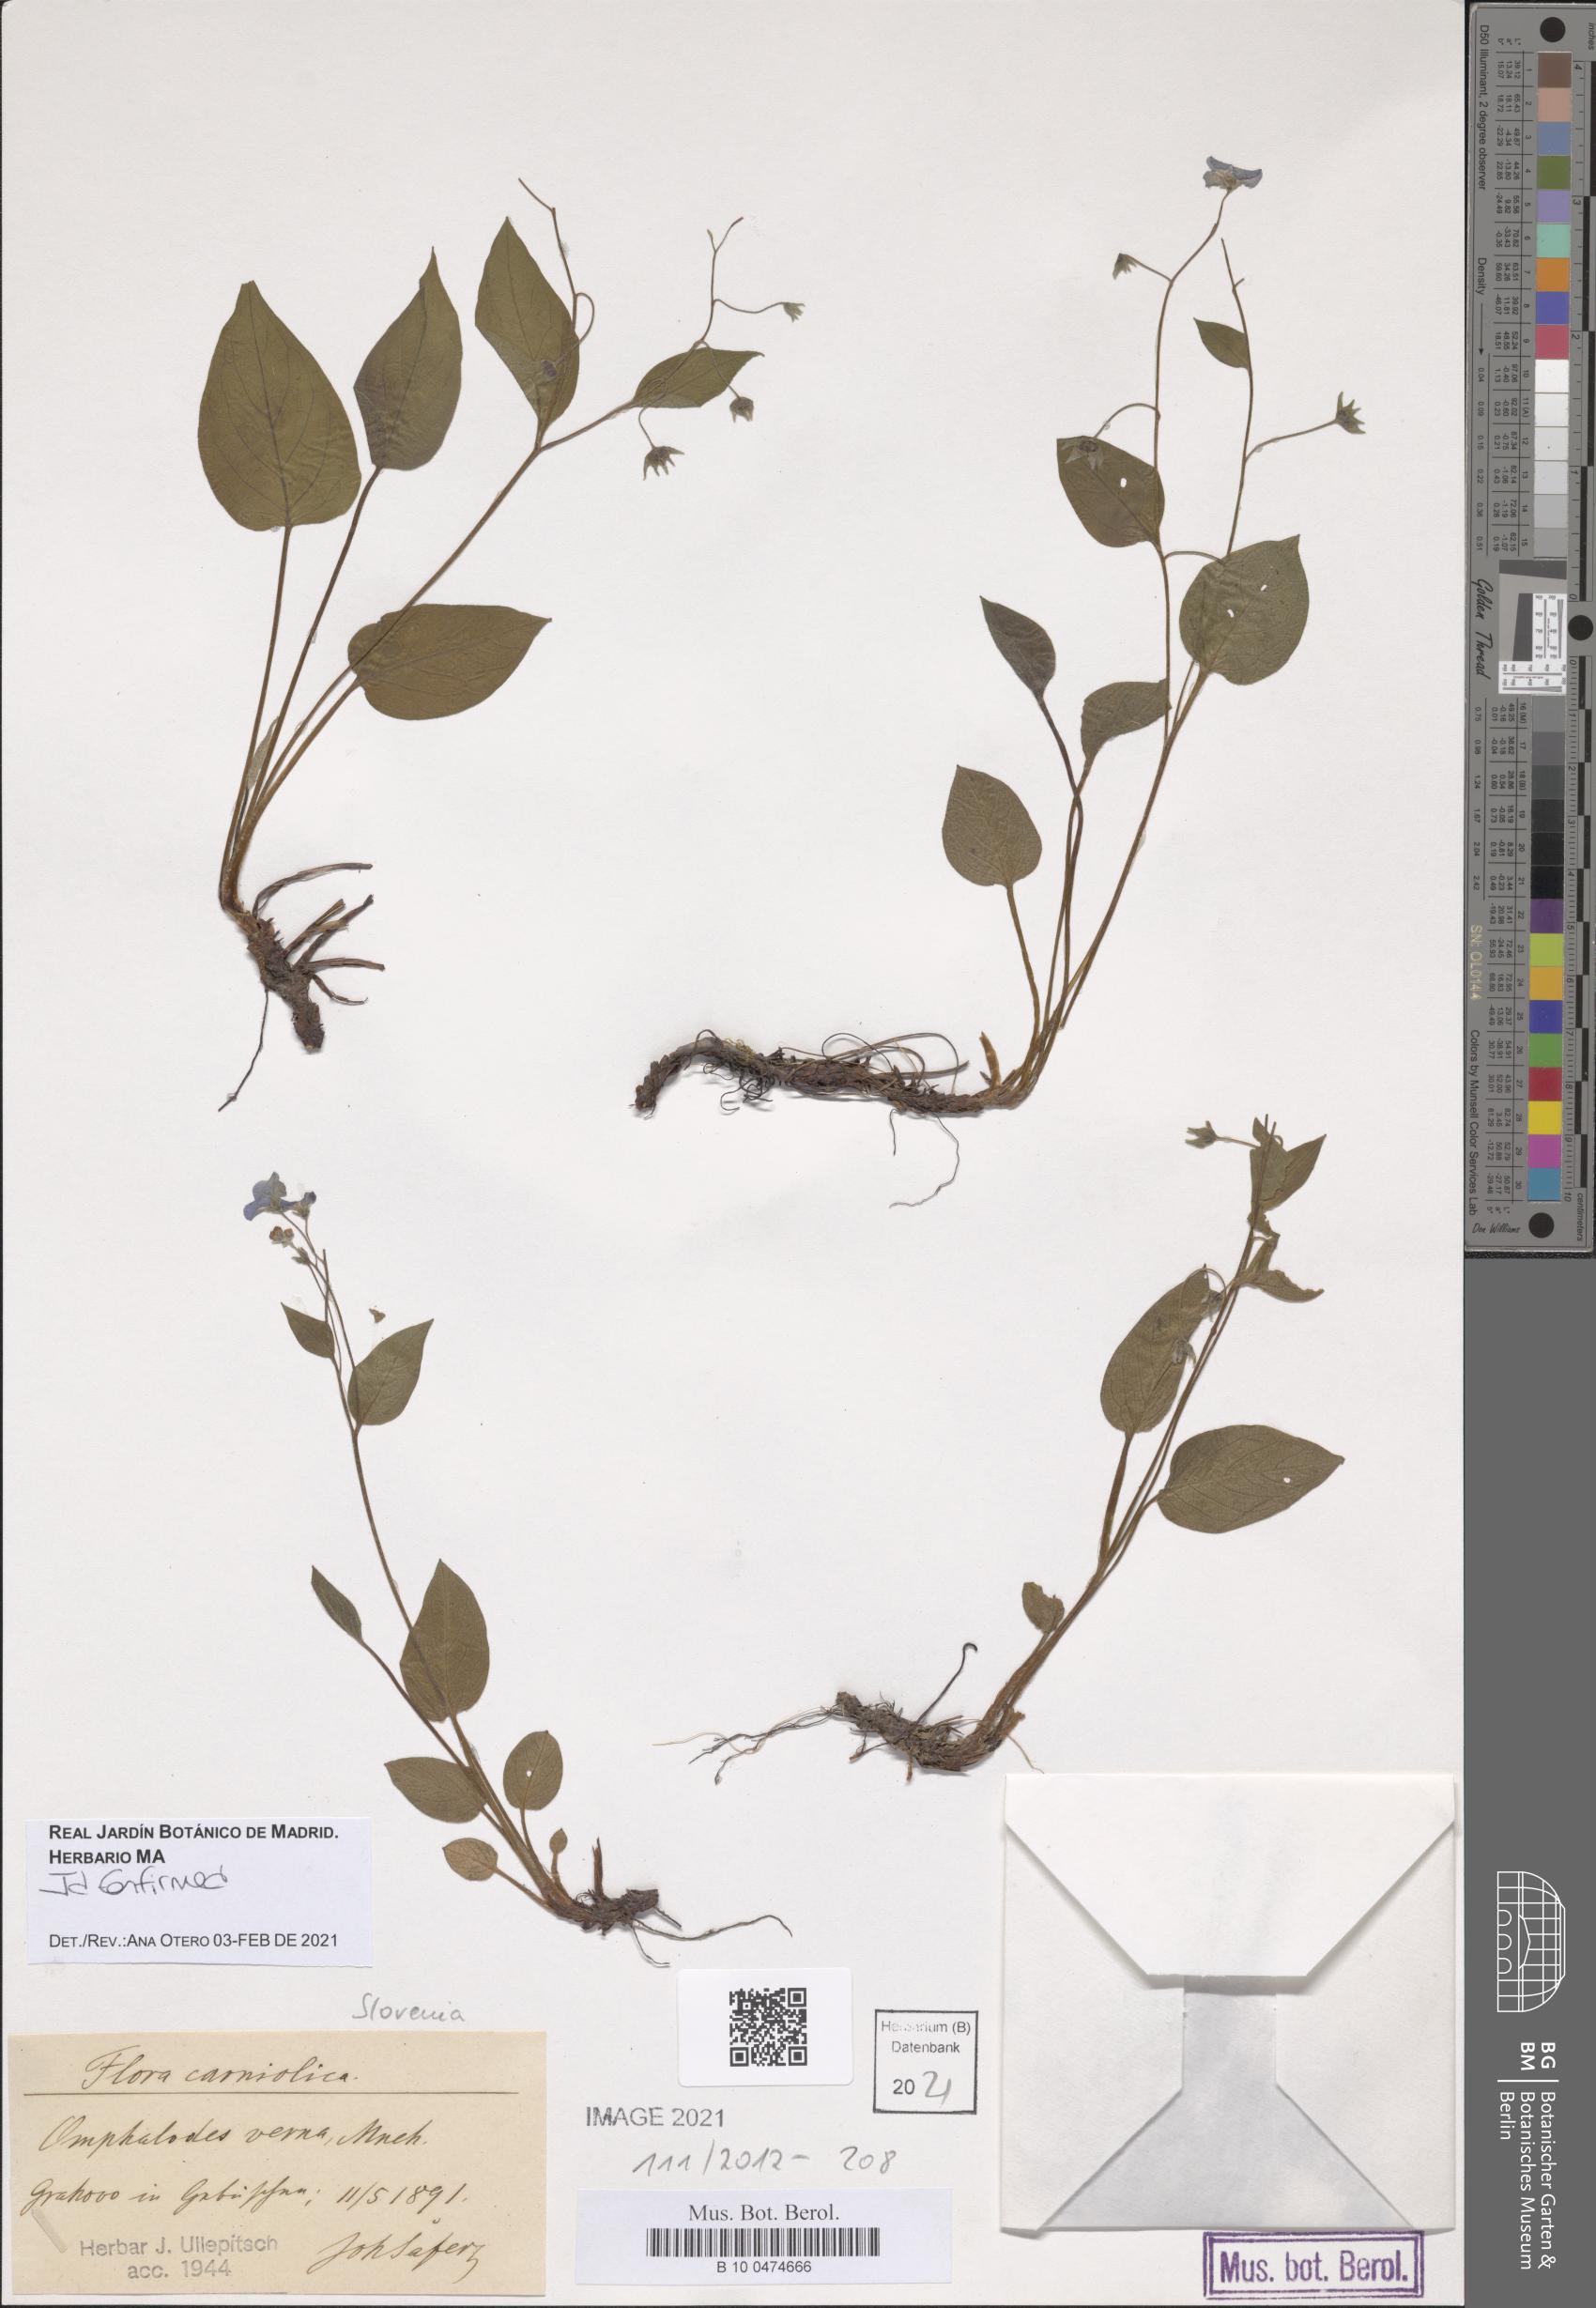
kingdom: Plantae
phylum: Tracheophyta
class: Magnoliopsida
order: Boraginales
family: Boraginaceae
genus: Omphalodes
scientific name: Omphalodes verna
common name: Blue-eyed-mary
